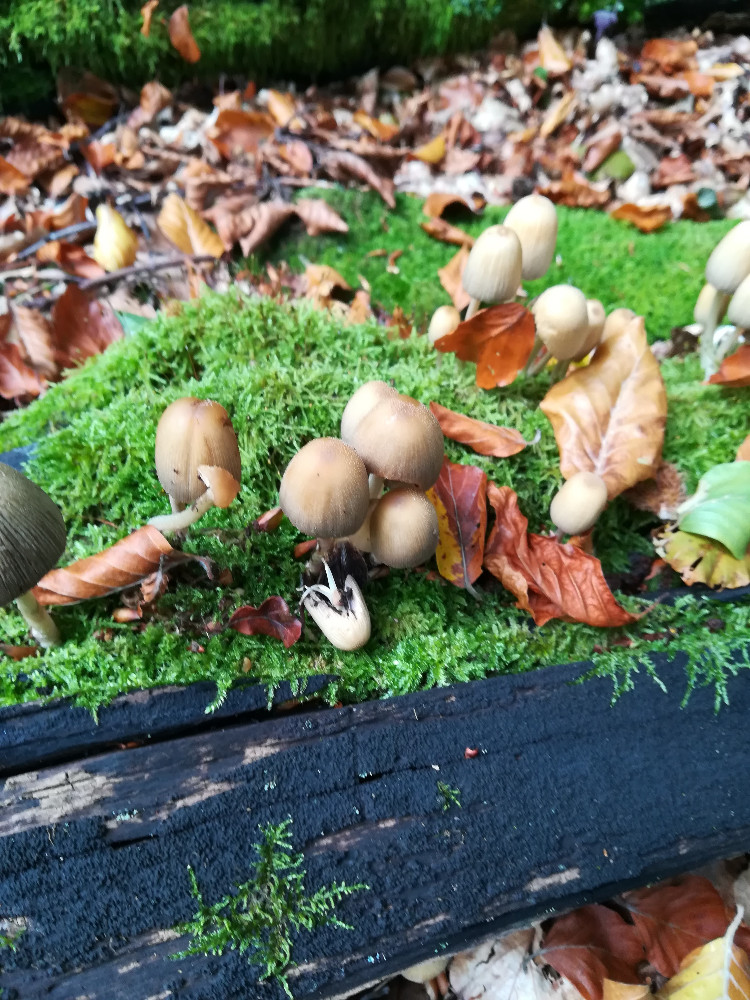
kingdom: Fungi
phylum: Basidiomycota
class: Agaricomycetes
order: Agaricales
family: Psathyrellaceae
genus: Coprinellus
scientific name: Coprinellus micaceus
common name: glimmer-blækhat
